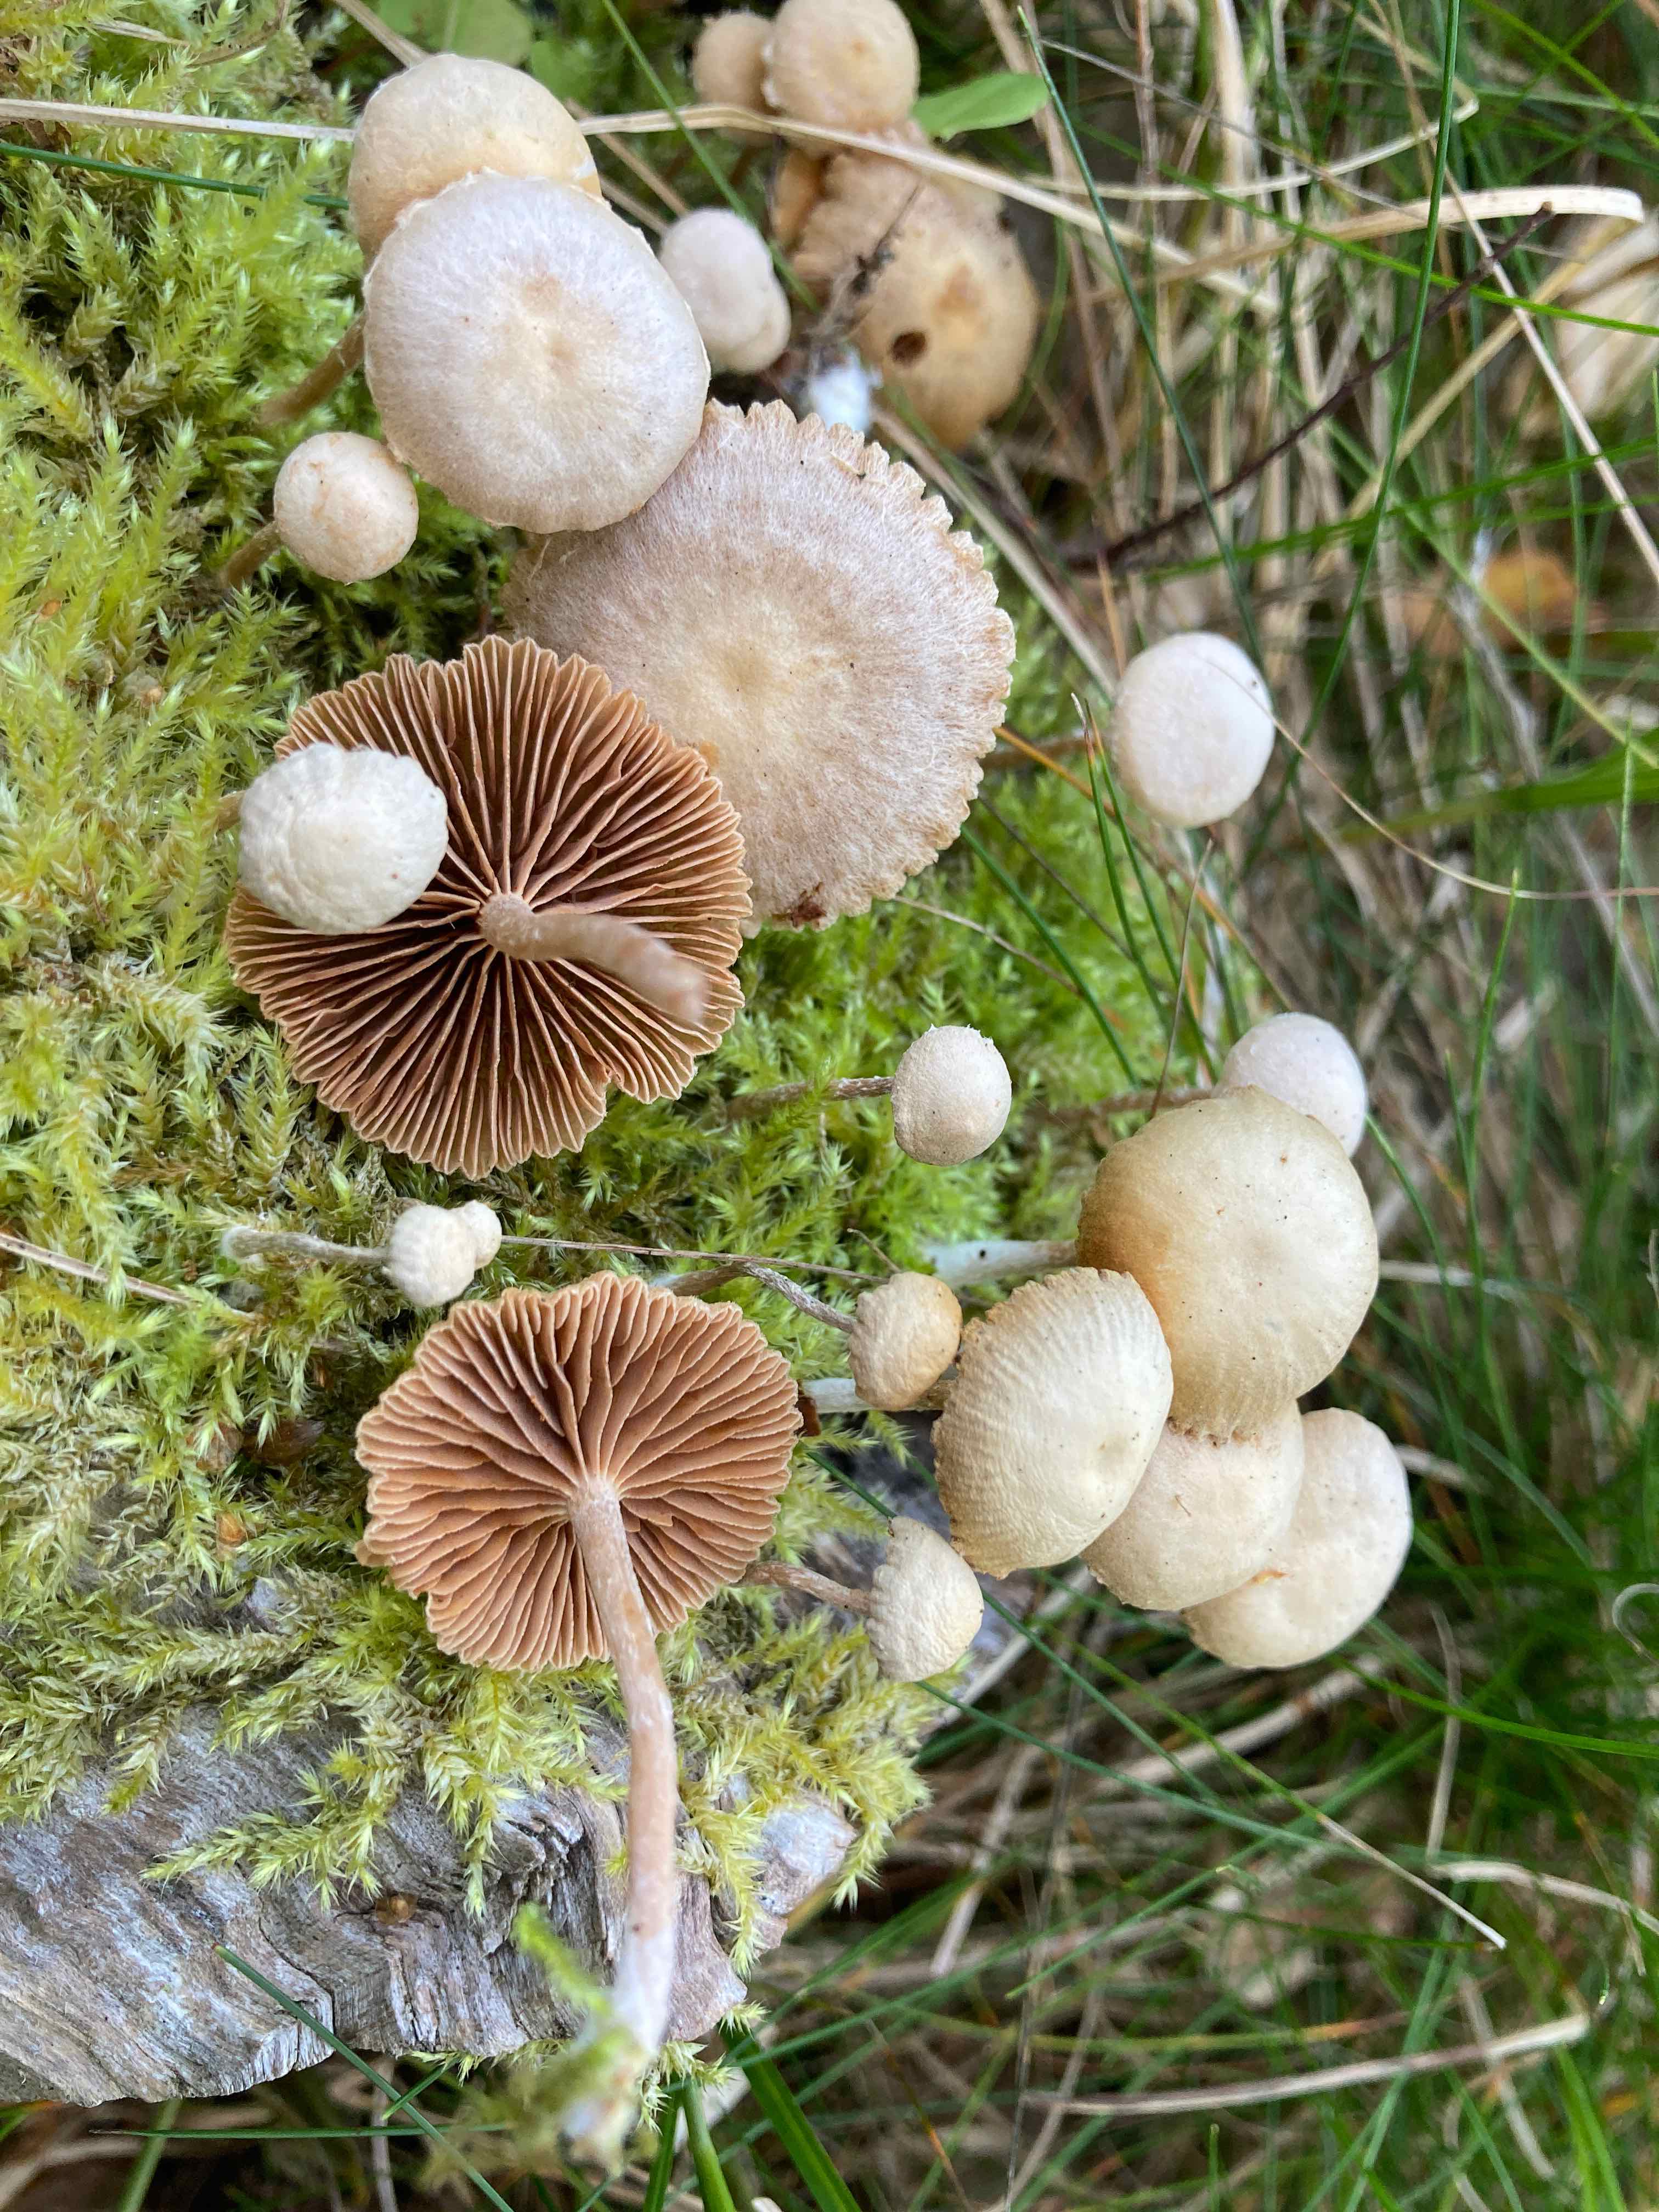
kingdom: Fungi
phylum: Basidiomycota
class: Agaricomycetes
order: Agaricales
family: Tubariaceae
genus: Tubaria
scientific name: Tubaria conspersa
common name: bleg fnughat
